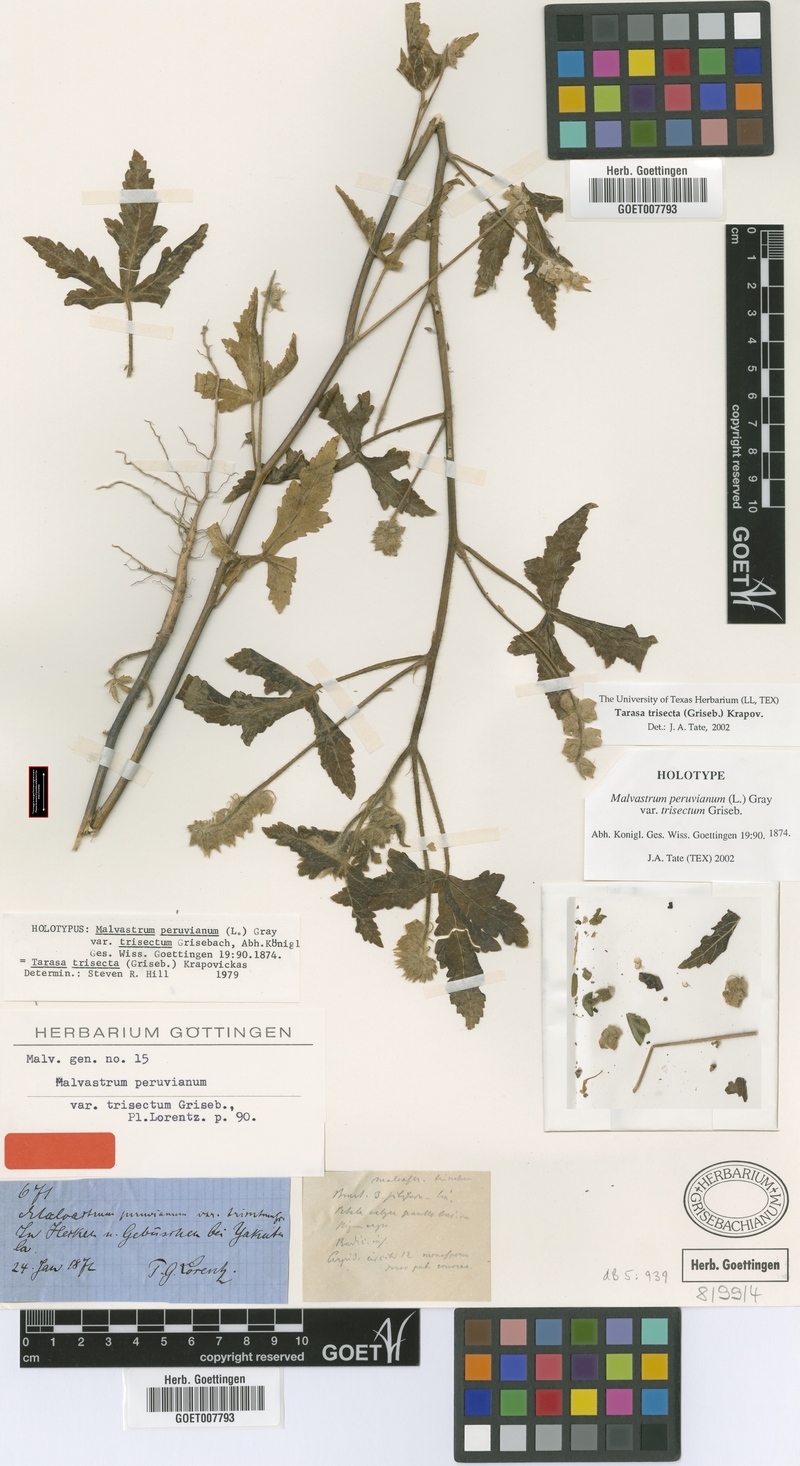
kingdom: Plantae
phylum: Tracheophyta
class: Magnoliopsida
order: Malvales
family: Malvaceae
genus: Tarasa
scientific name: Tarasa trisecta
